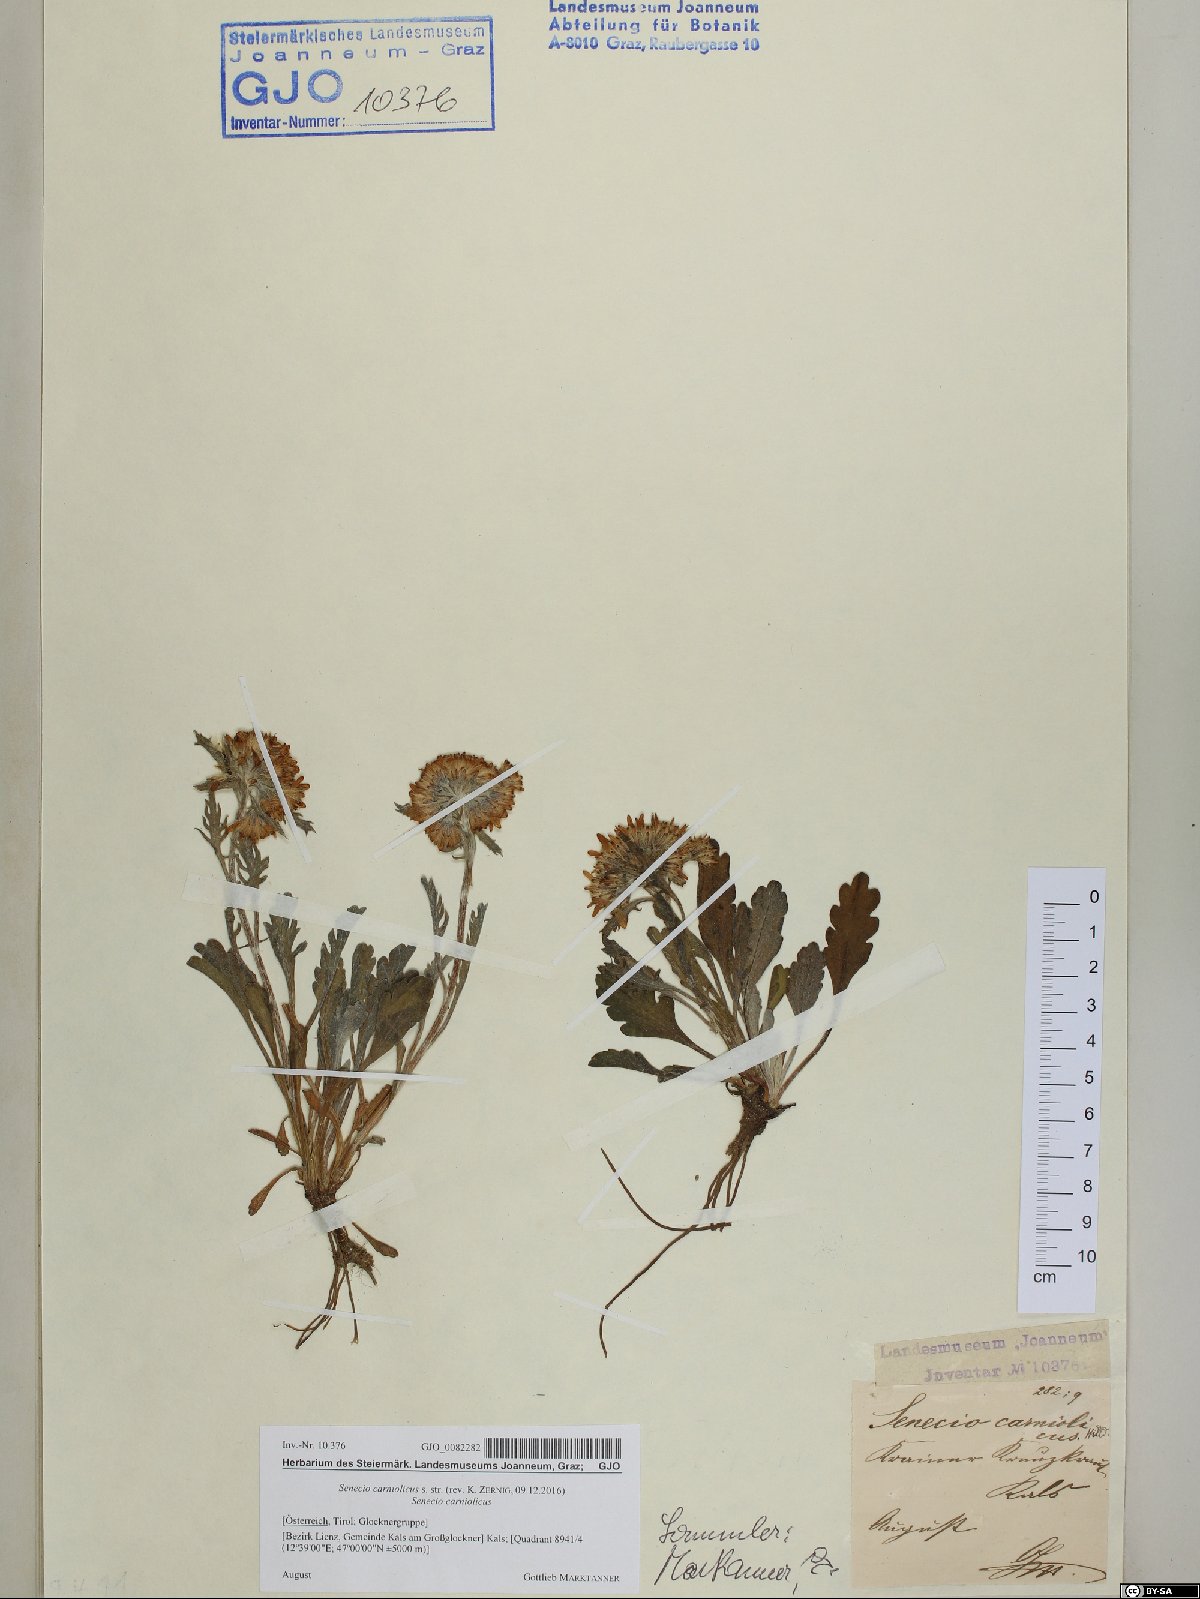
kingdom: Plantae
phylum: Tracheophyta
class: Magnoliopsida
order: Asterales
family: Asteraceae
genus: Jacobaea
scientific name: Jacobaea carniolica
